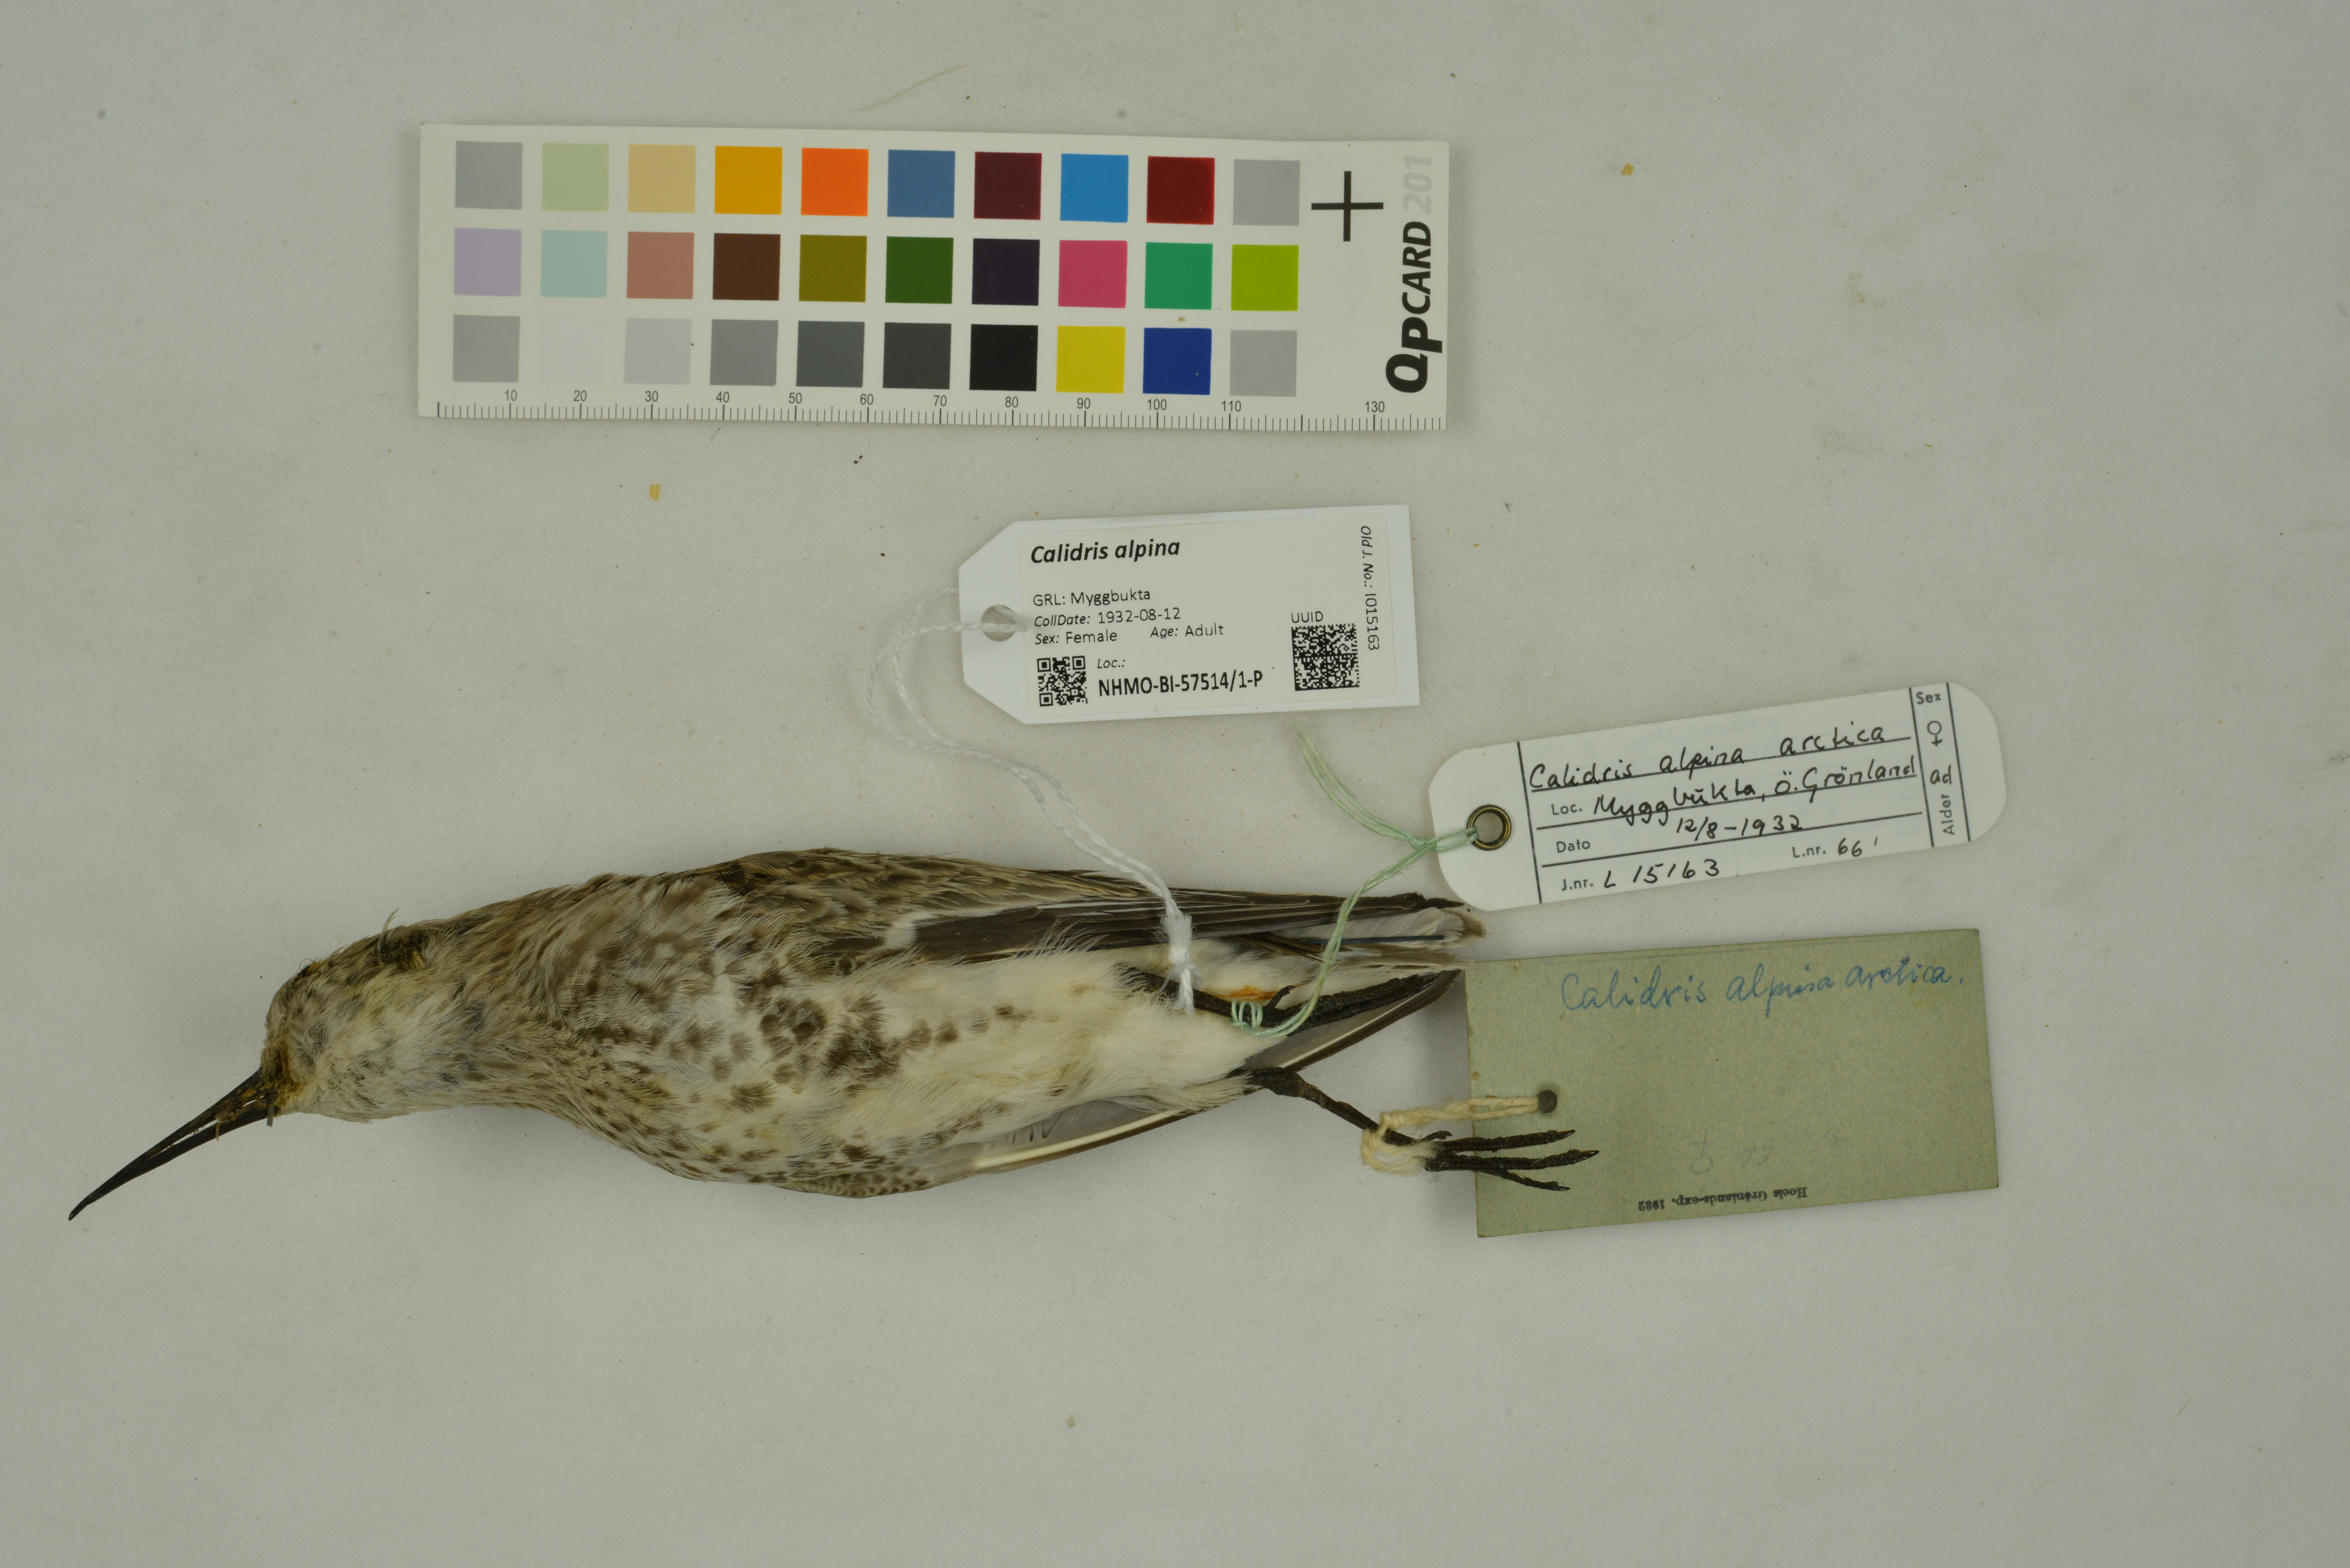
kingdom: Animalia
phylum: Chordata
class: Aves
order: Charadriiformes
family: Scolopacidae
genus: Calidris
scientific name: Calidris alpina
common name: Dunlin
